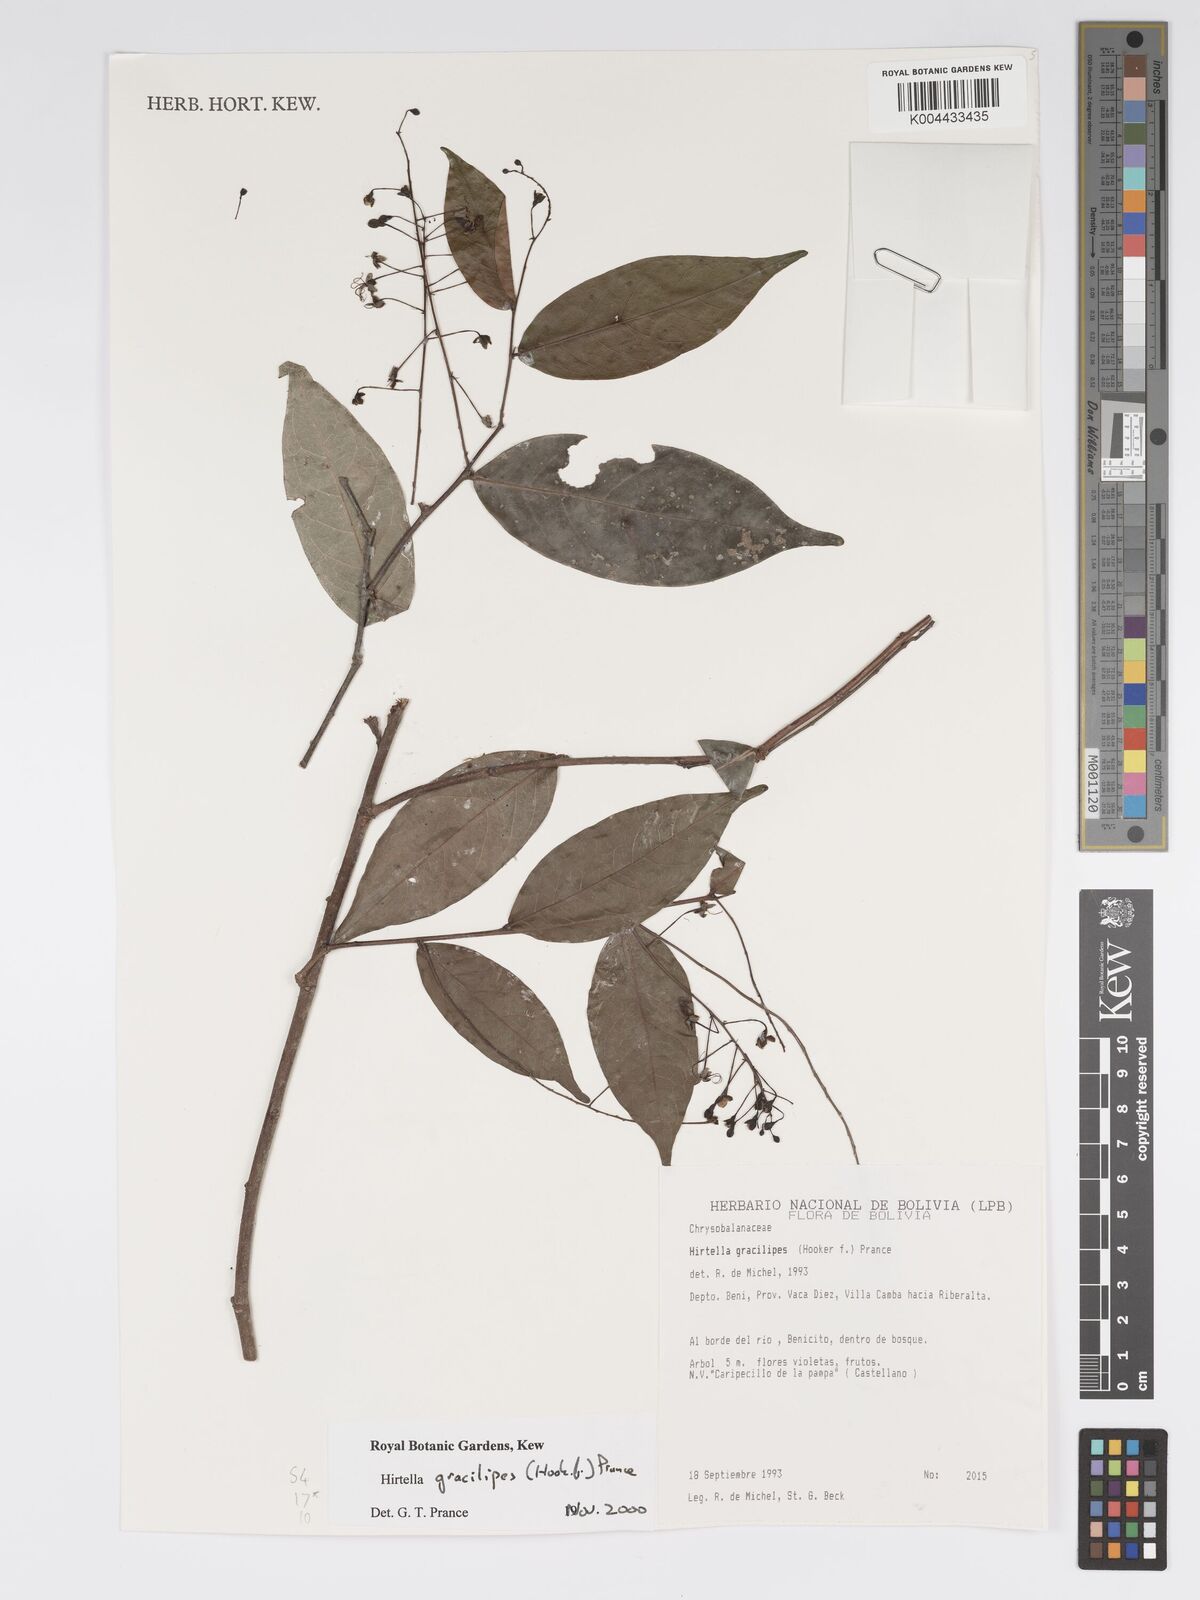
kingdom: Plantae
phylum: Tracheophyta
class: Magnoliopsida
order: Malpighiales
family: Chrysobalanaceae
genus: Hirtella
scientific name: Hirtella gracilipes
